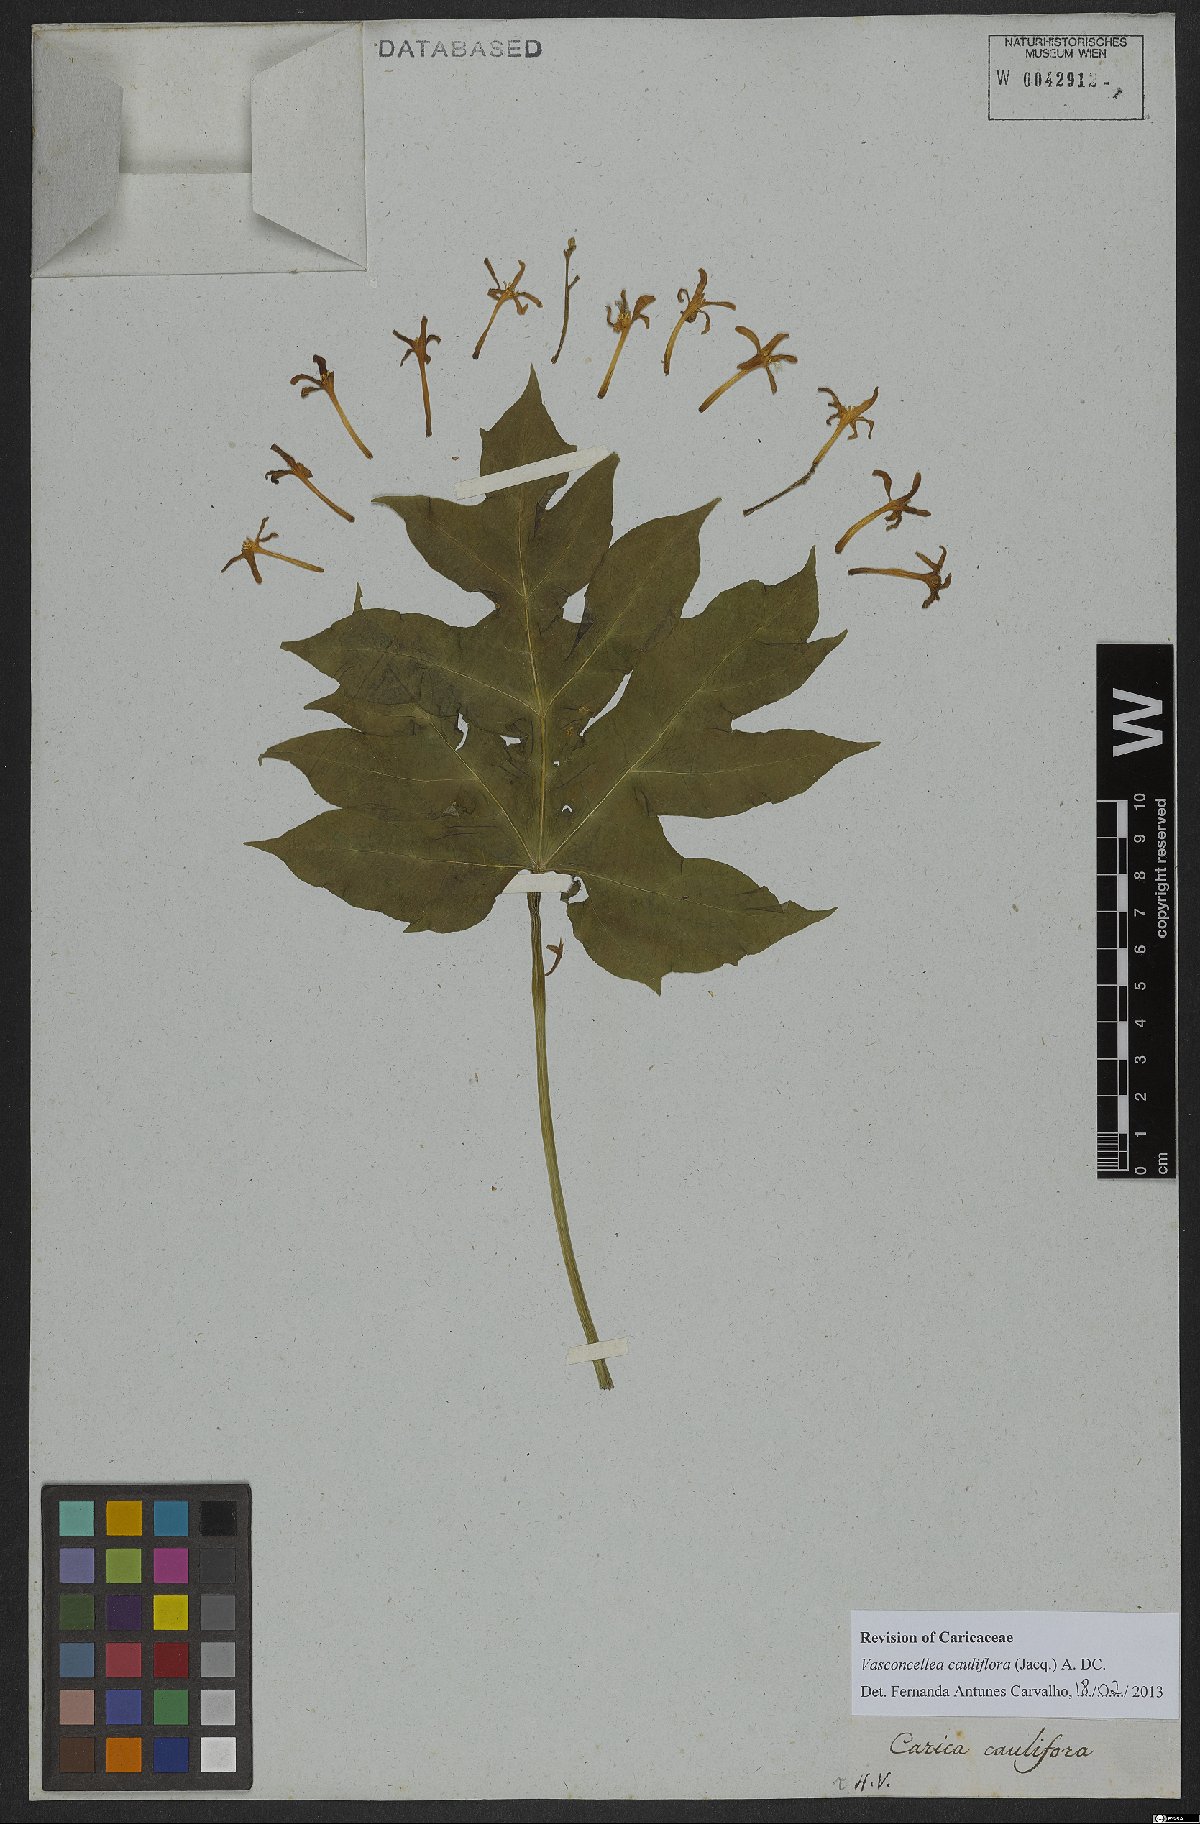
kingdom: Plantae
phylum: Tracheophyta
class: Magnoliopsida
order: Brassicales
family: Caricaceae
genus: Vasconcellea
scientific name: Vasconcellea cauliflora
